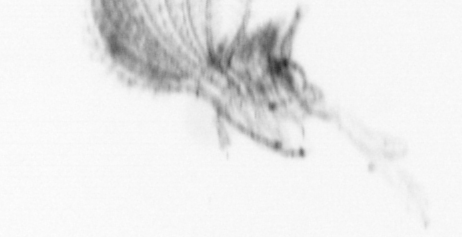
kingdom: Animalia
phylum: Arthropoda
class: Maxillopoda
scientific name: Maxillopoda
